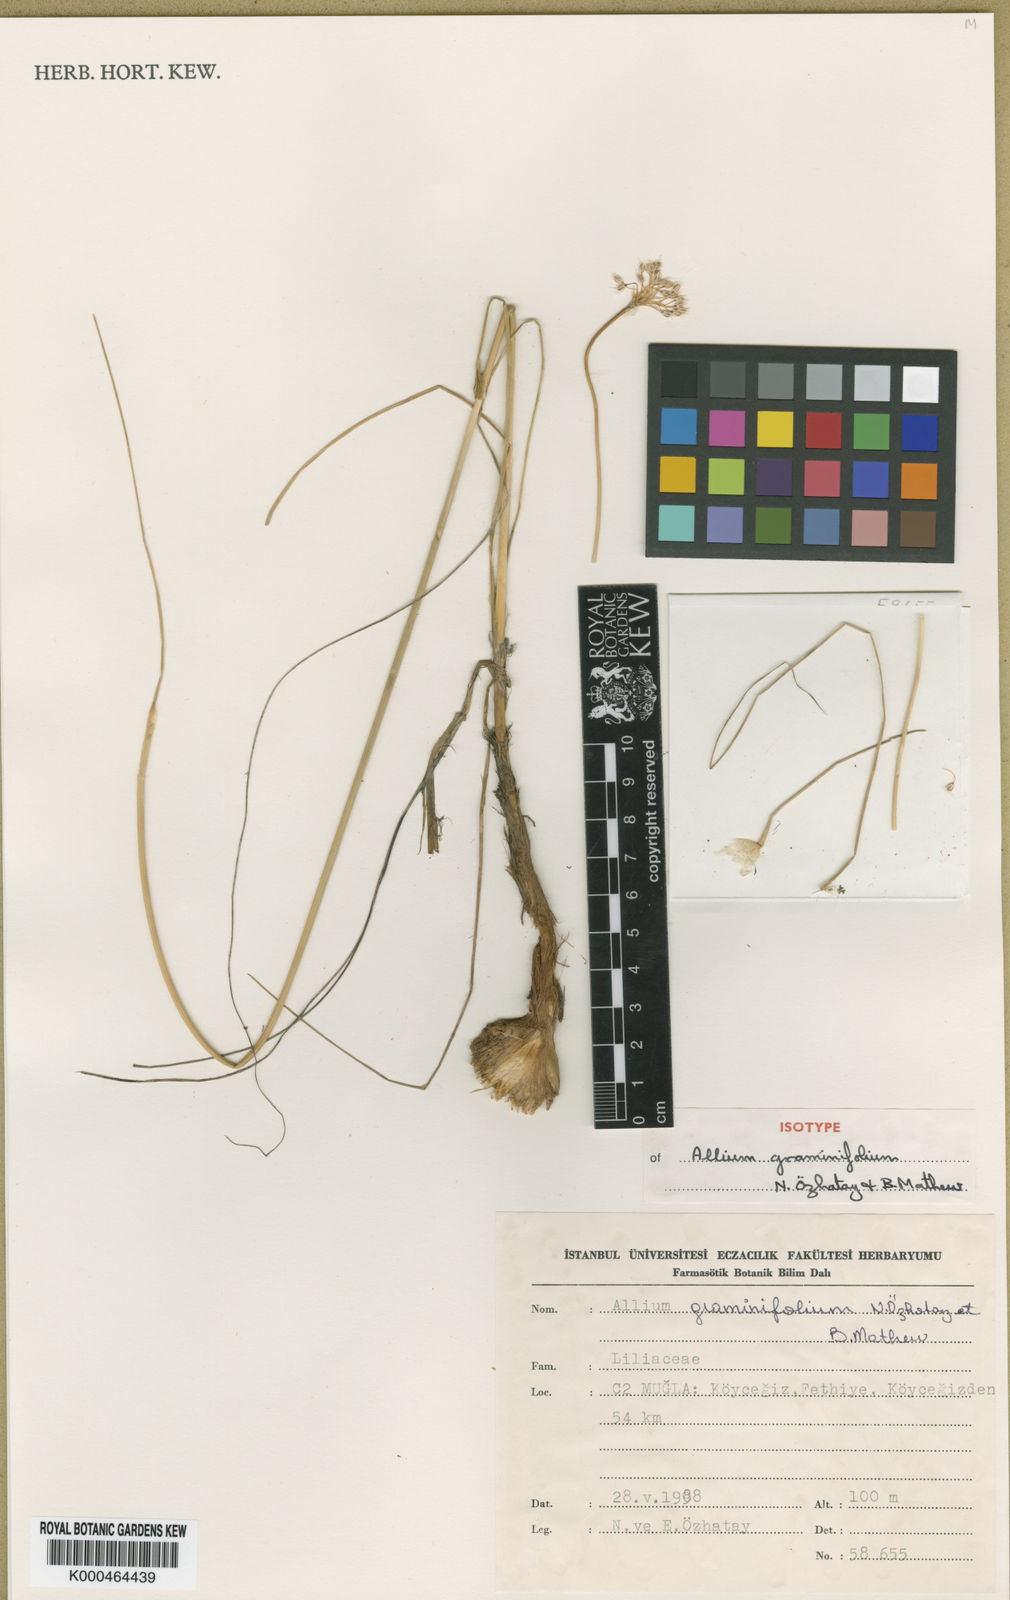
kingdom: Plantae
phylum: Tracheophyta
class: Liliopsida
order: Asparagales
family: Amaryllidaceae
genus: Allium
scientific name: Allium subhirsutum
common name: Hairy garlic
